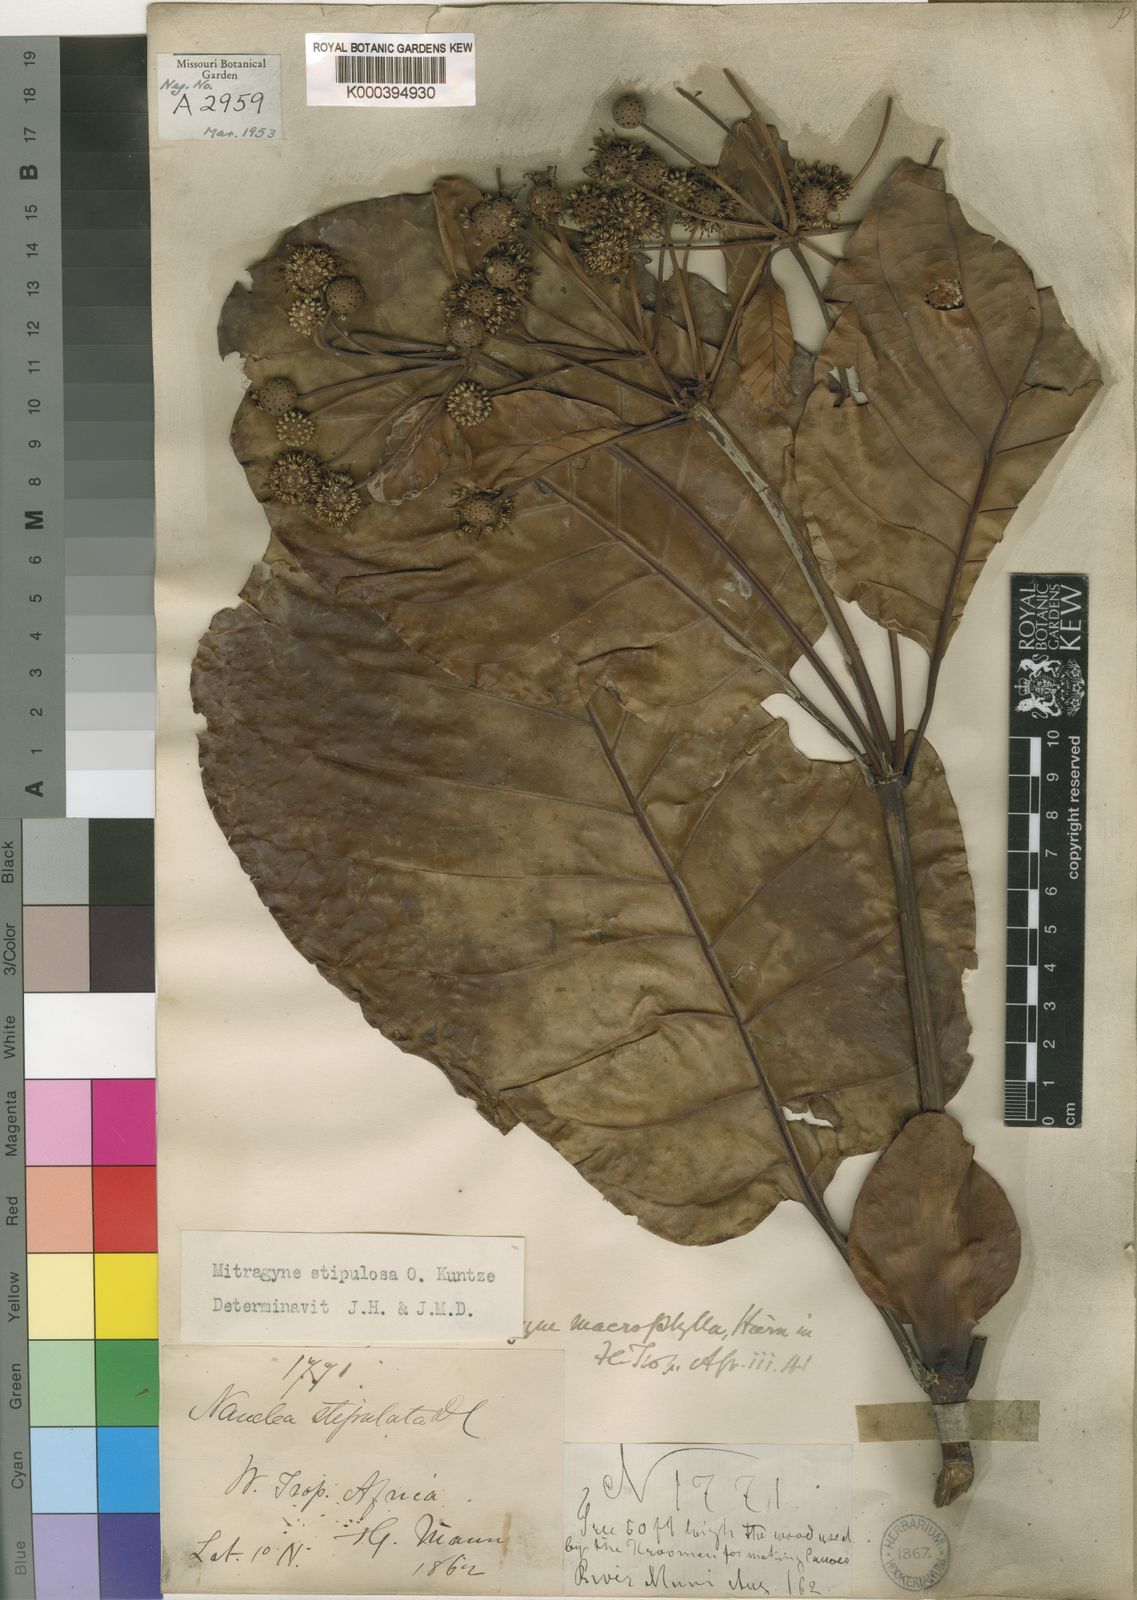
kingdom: Plantae
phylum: Tracheophyta
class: Magnoliopsida
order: Gentianales
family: Rubiaceae
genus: Mitragyna
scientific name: Mitragyna stipulosa
